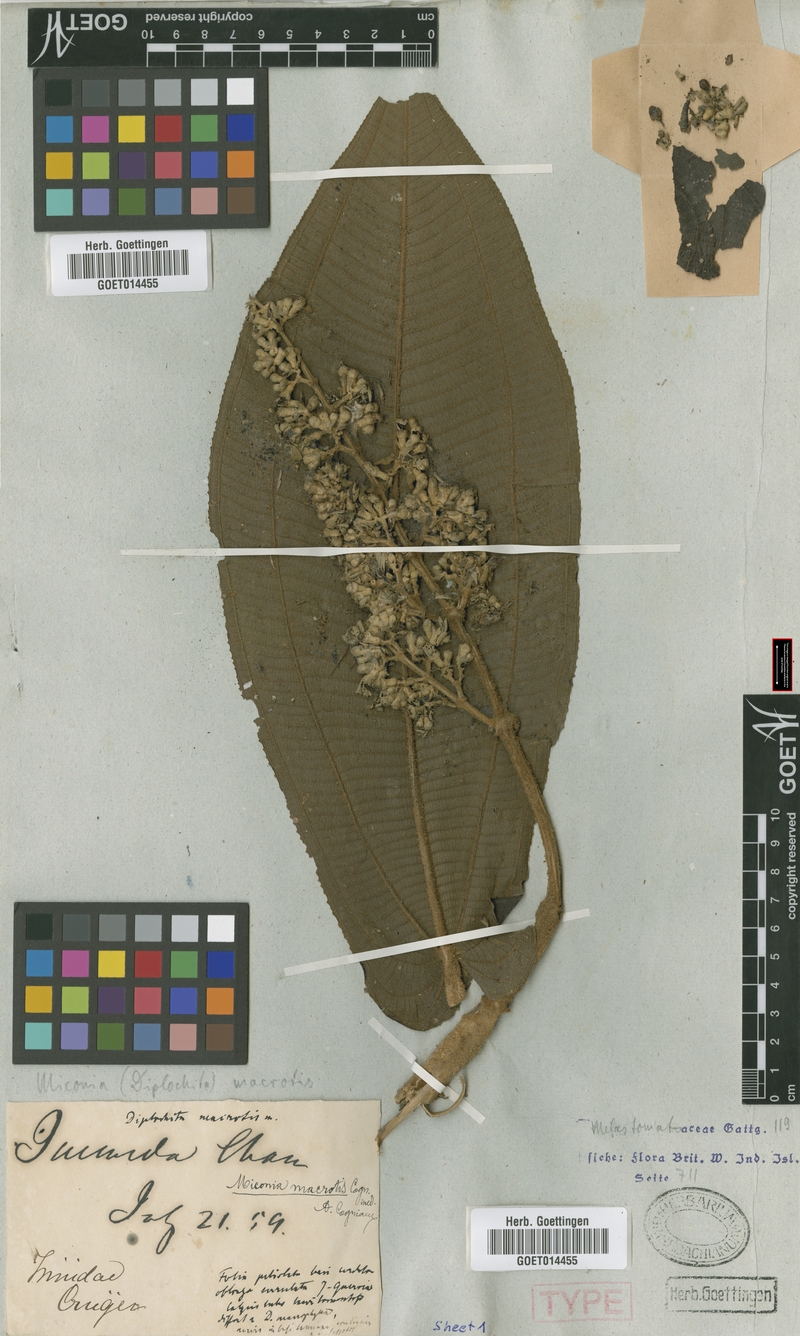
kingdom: Plantae
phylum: Tracheophyta
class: Magnoliopsida
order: Myrtales
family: Melastomataceae
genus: Miconia
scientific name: Miconia macrotis
